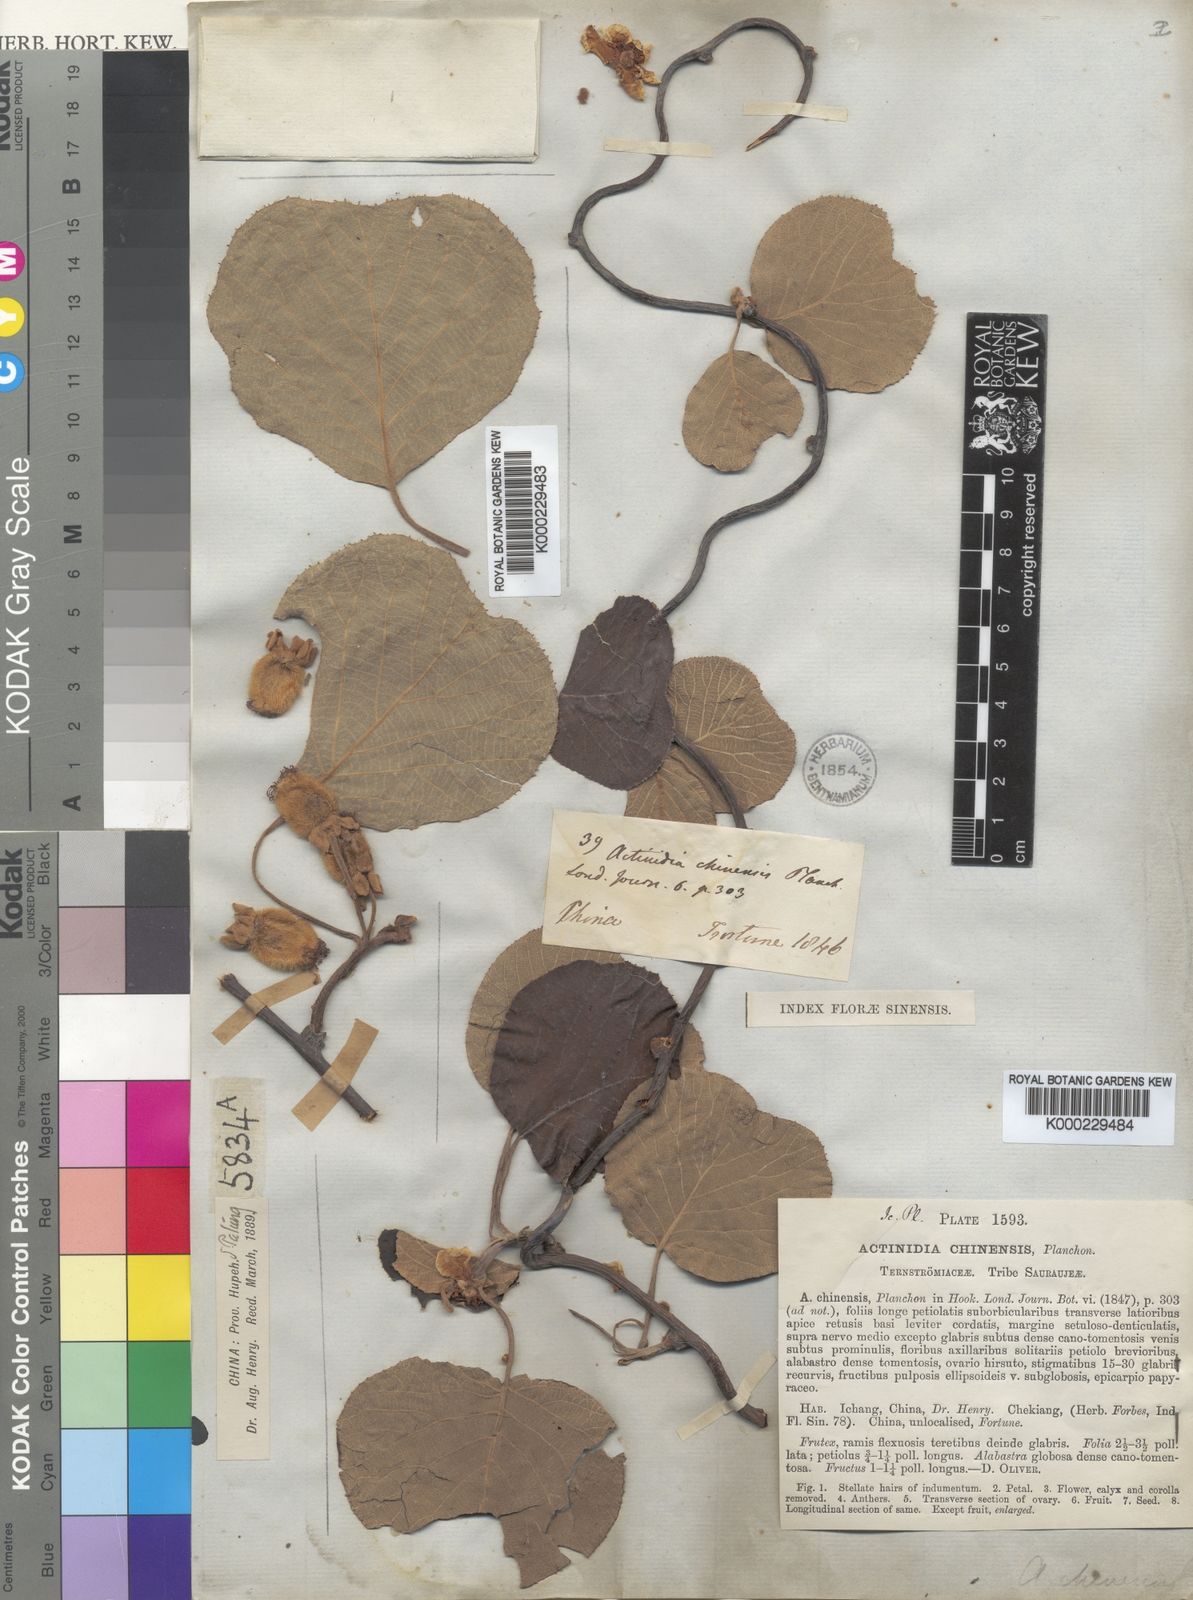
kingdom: Plantae
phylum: Tracheophyta
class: Magnoliopsida
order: Ericales
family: Actinidiaceae
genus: Actinidia
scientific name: Actinidia chinensis
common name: Kiwi
